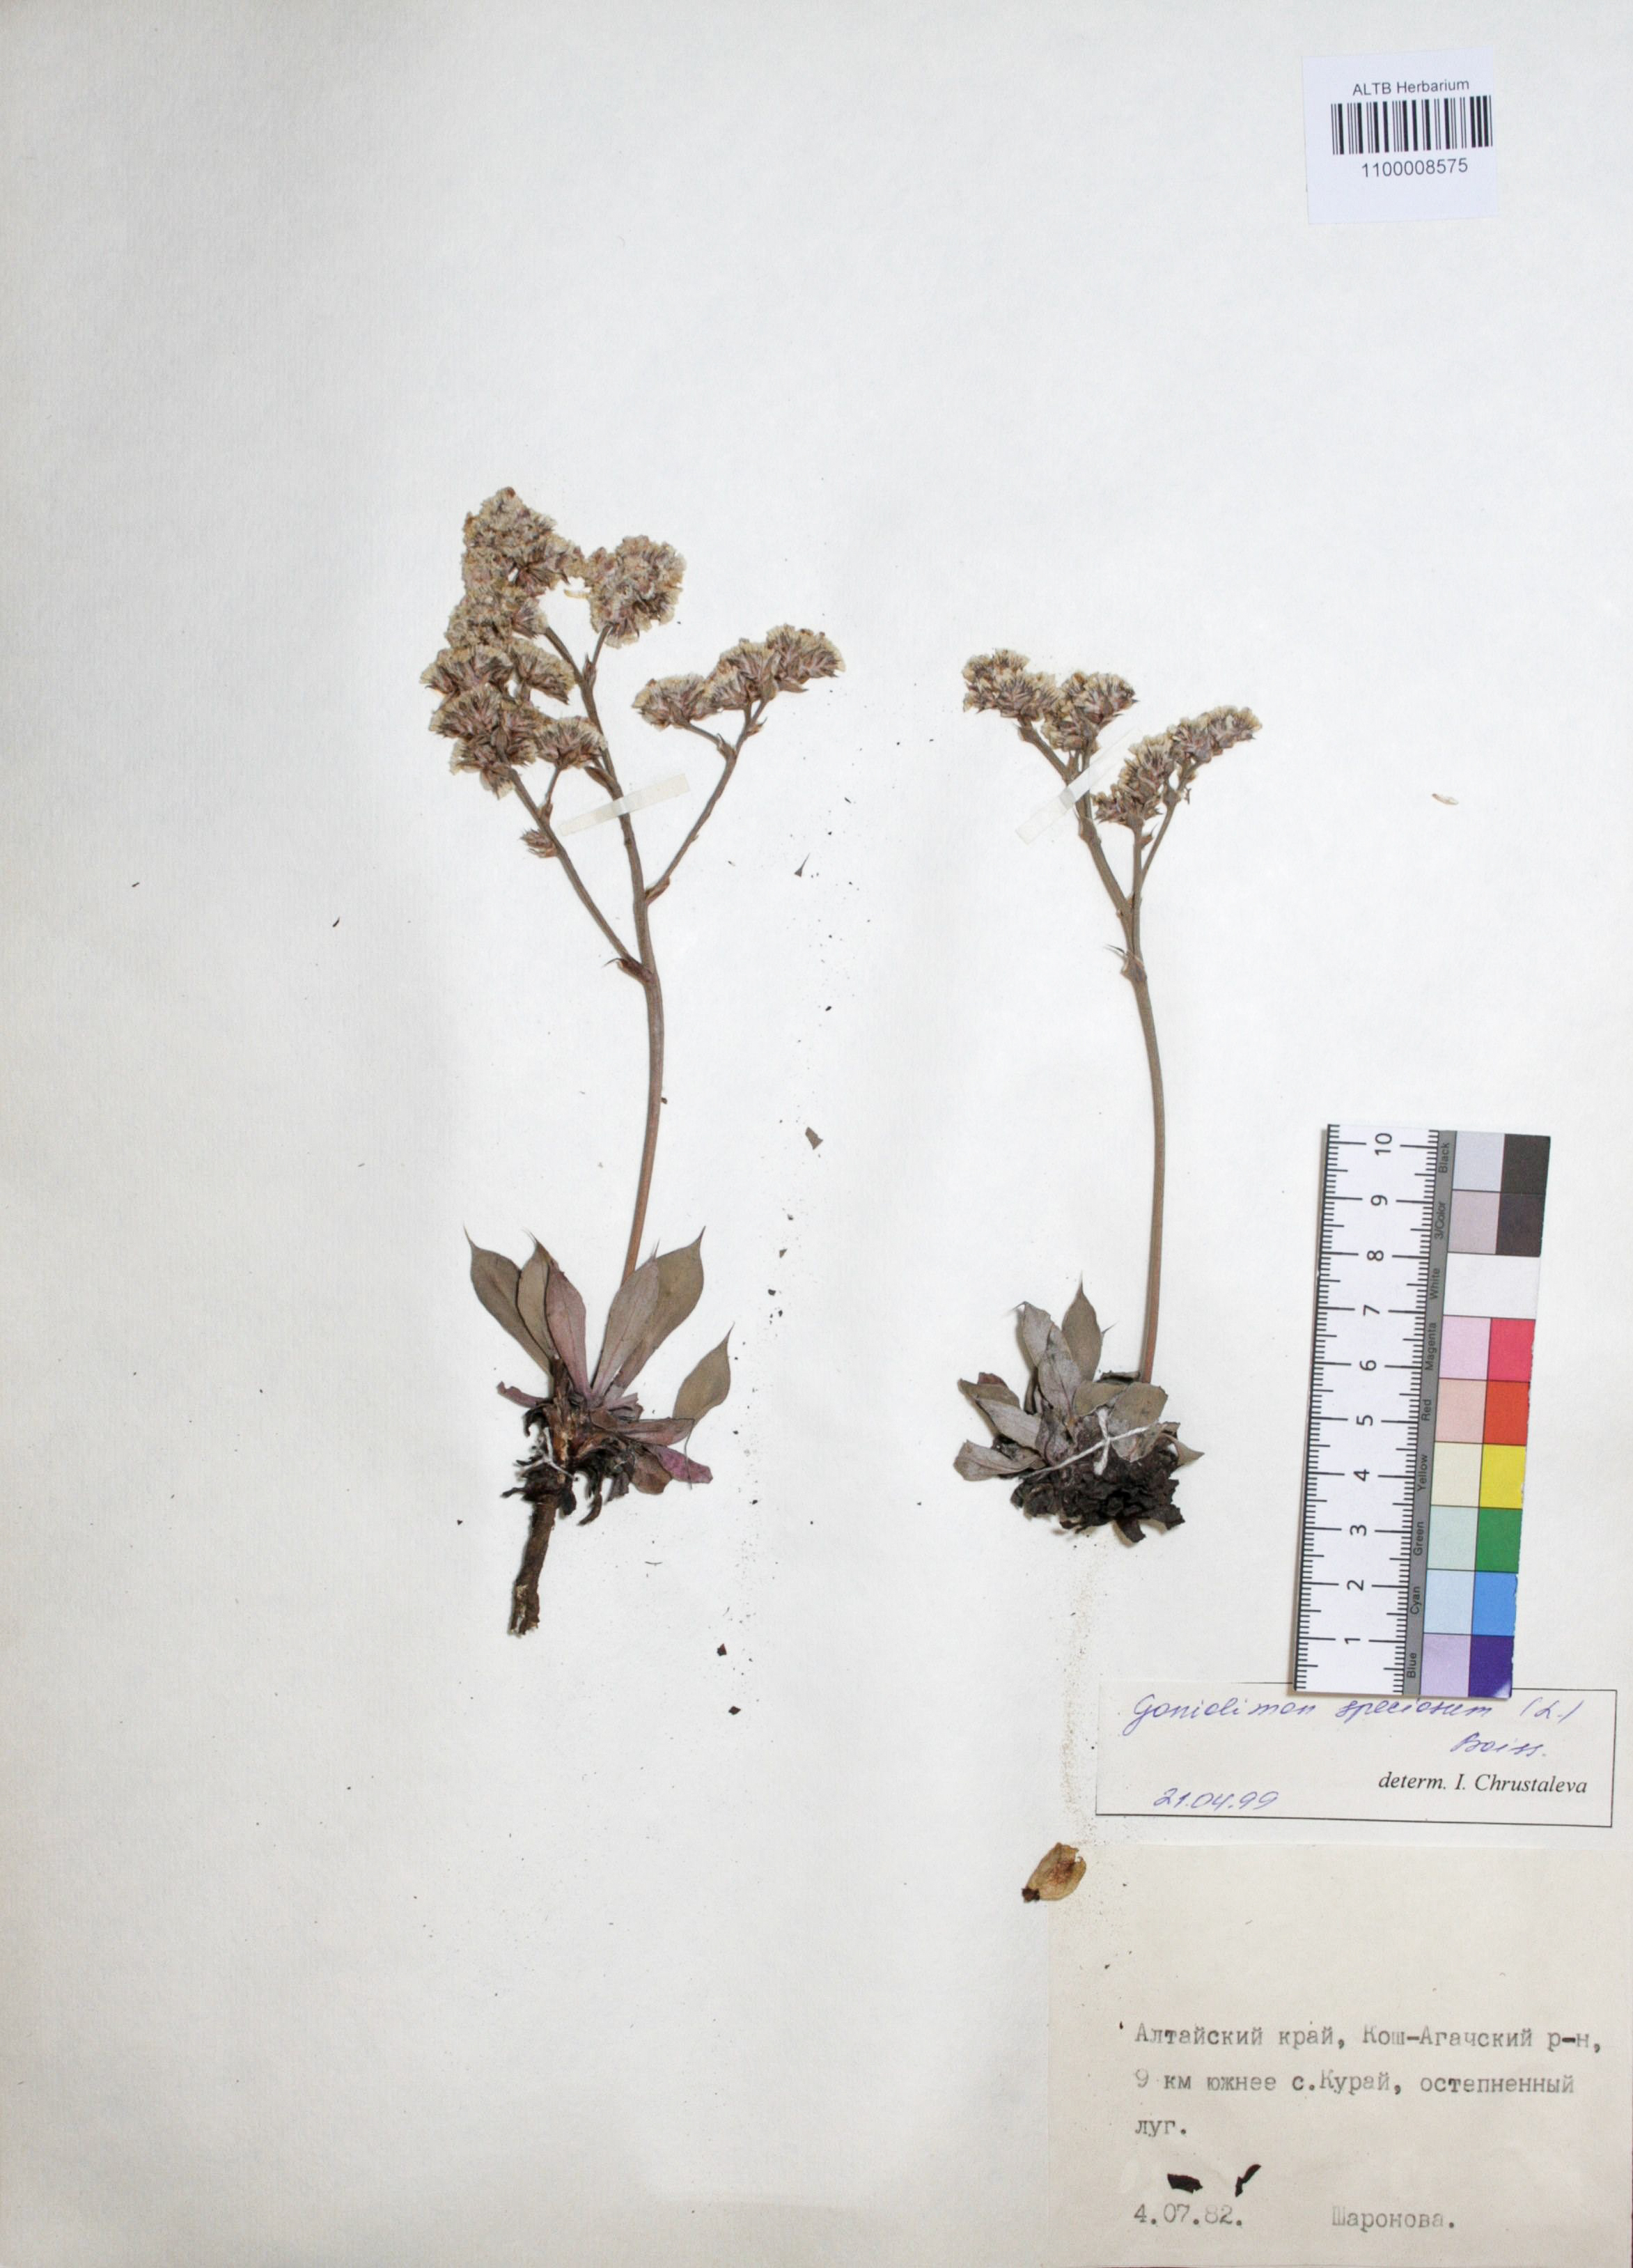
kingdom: Plantae
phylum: Tracheophyta
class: Magnoliopsida
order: Caryophyllales
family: Plumbaginaceae
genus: Goniolimon
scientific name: Goniolimon speciosum
